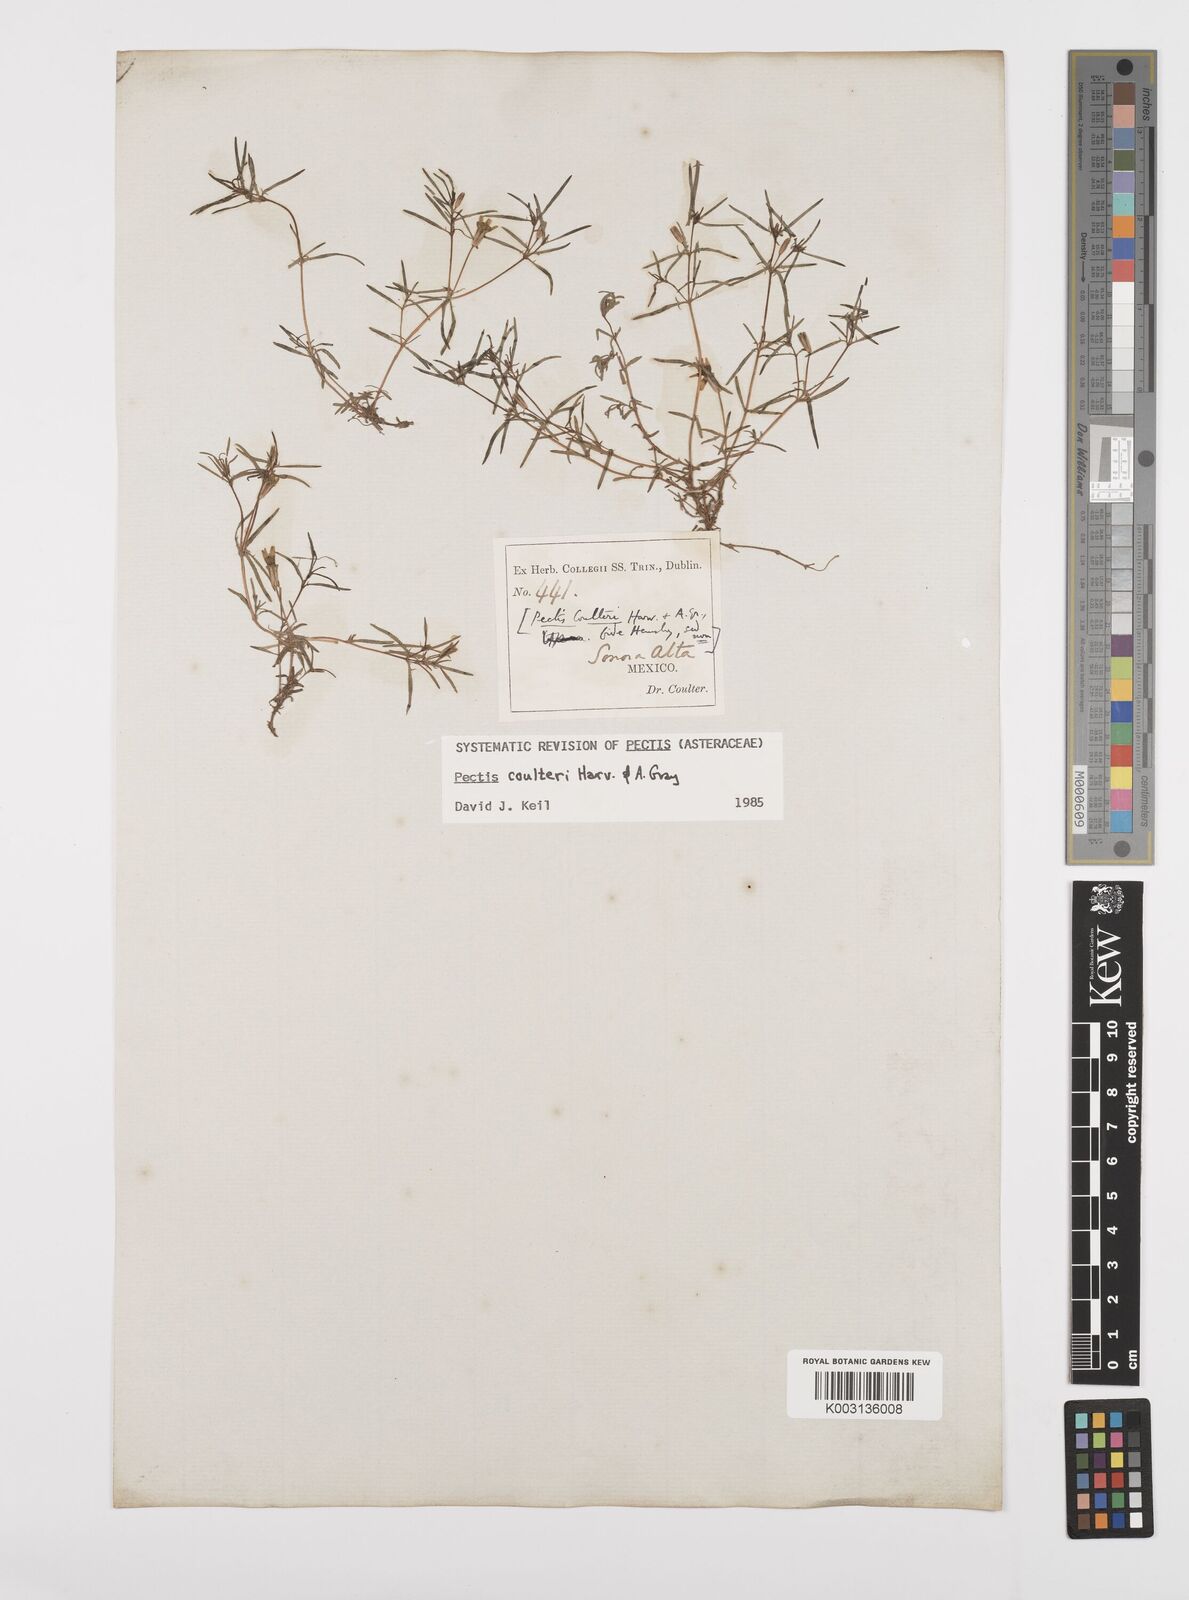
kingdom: Plantae
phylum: Tracheophyta
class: Magnoliopsida
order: Asterales
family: Asteraceae
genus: Pectis
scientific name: Pectis angustifolia
